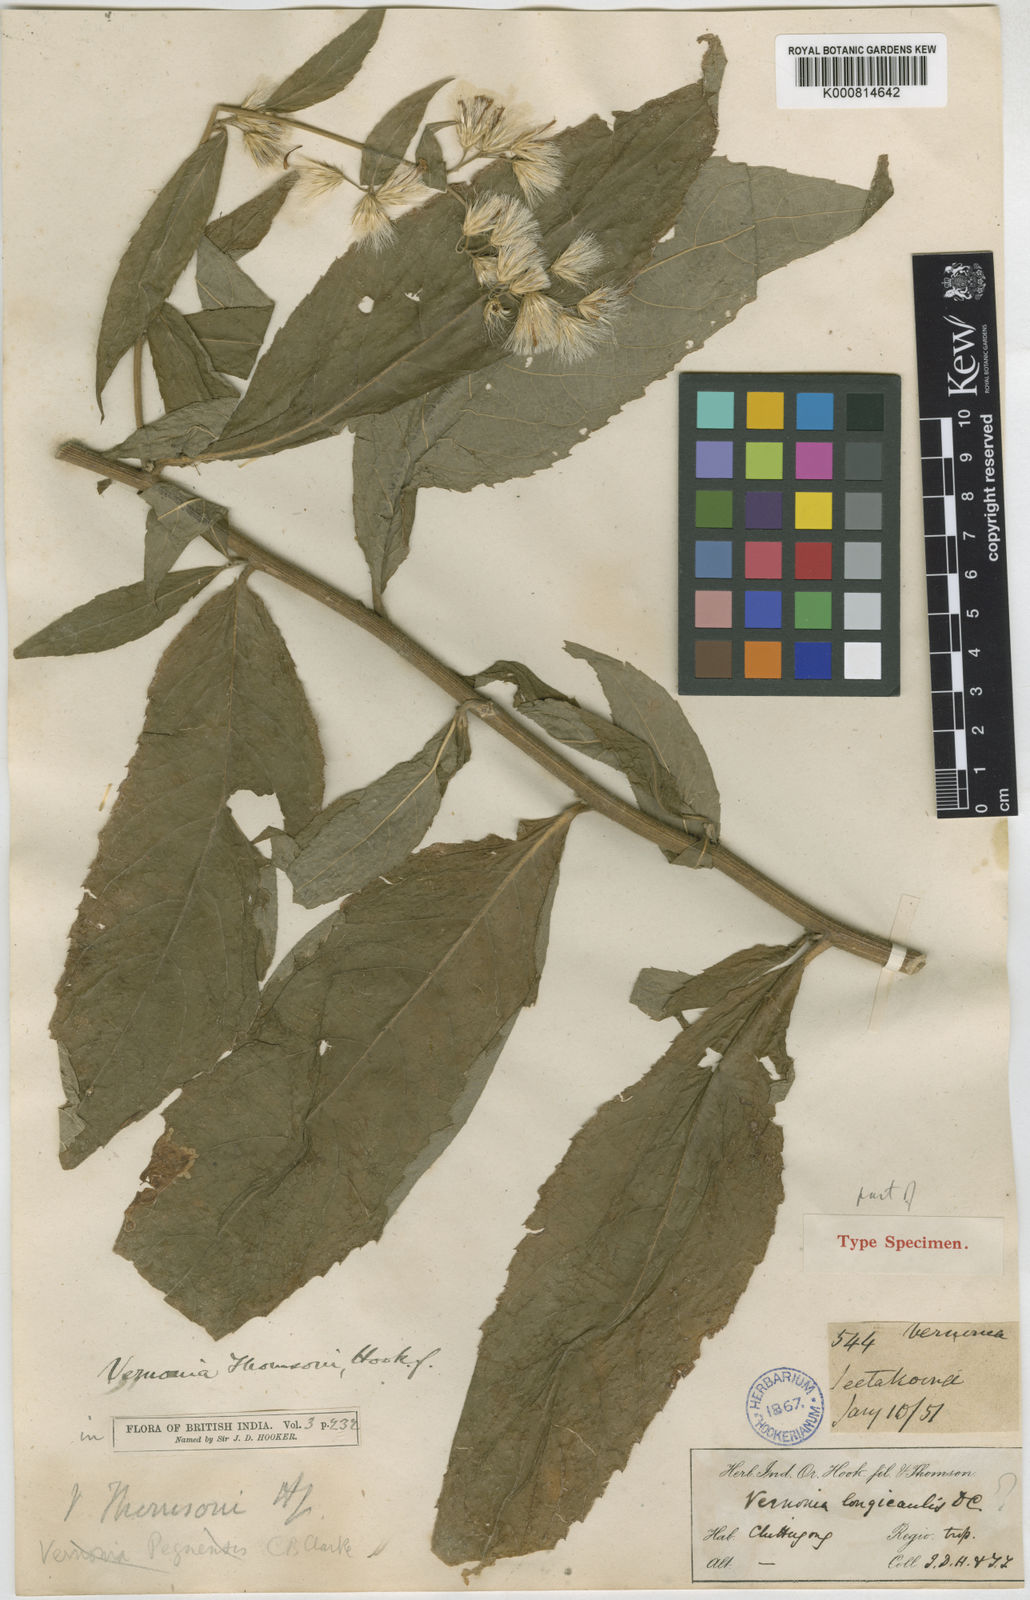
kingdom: Plantae
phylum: Tracheophyta
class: Magnoliopsida
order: Asterales
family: Asteraceae
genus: Vernonia
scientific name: Vernonia thomsonii
